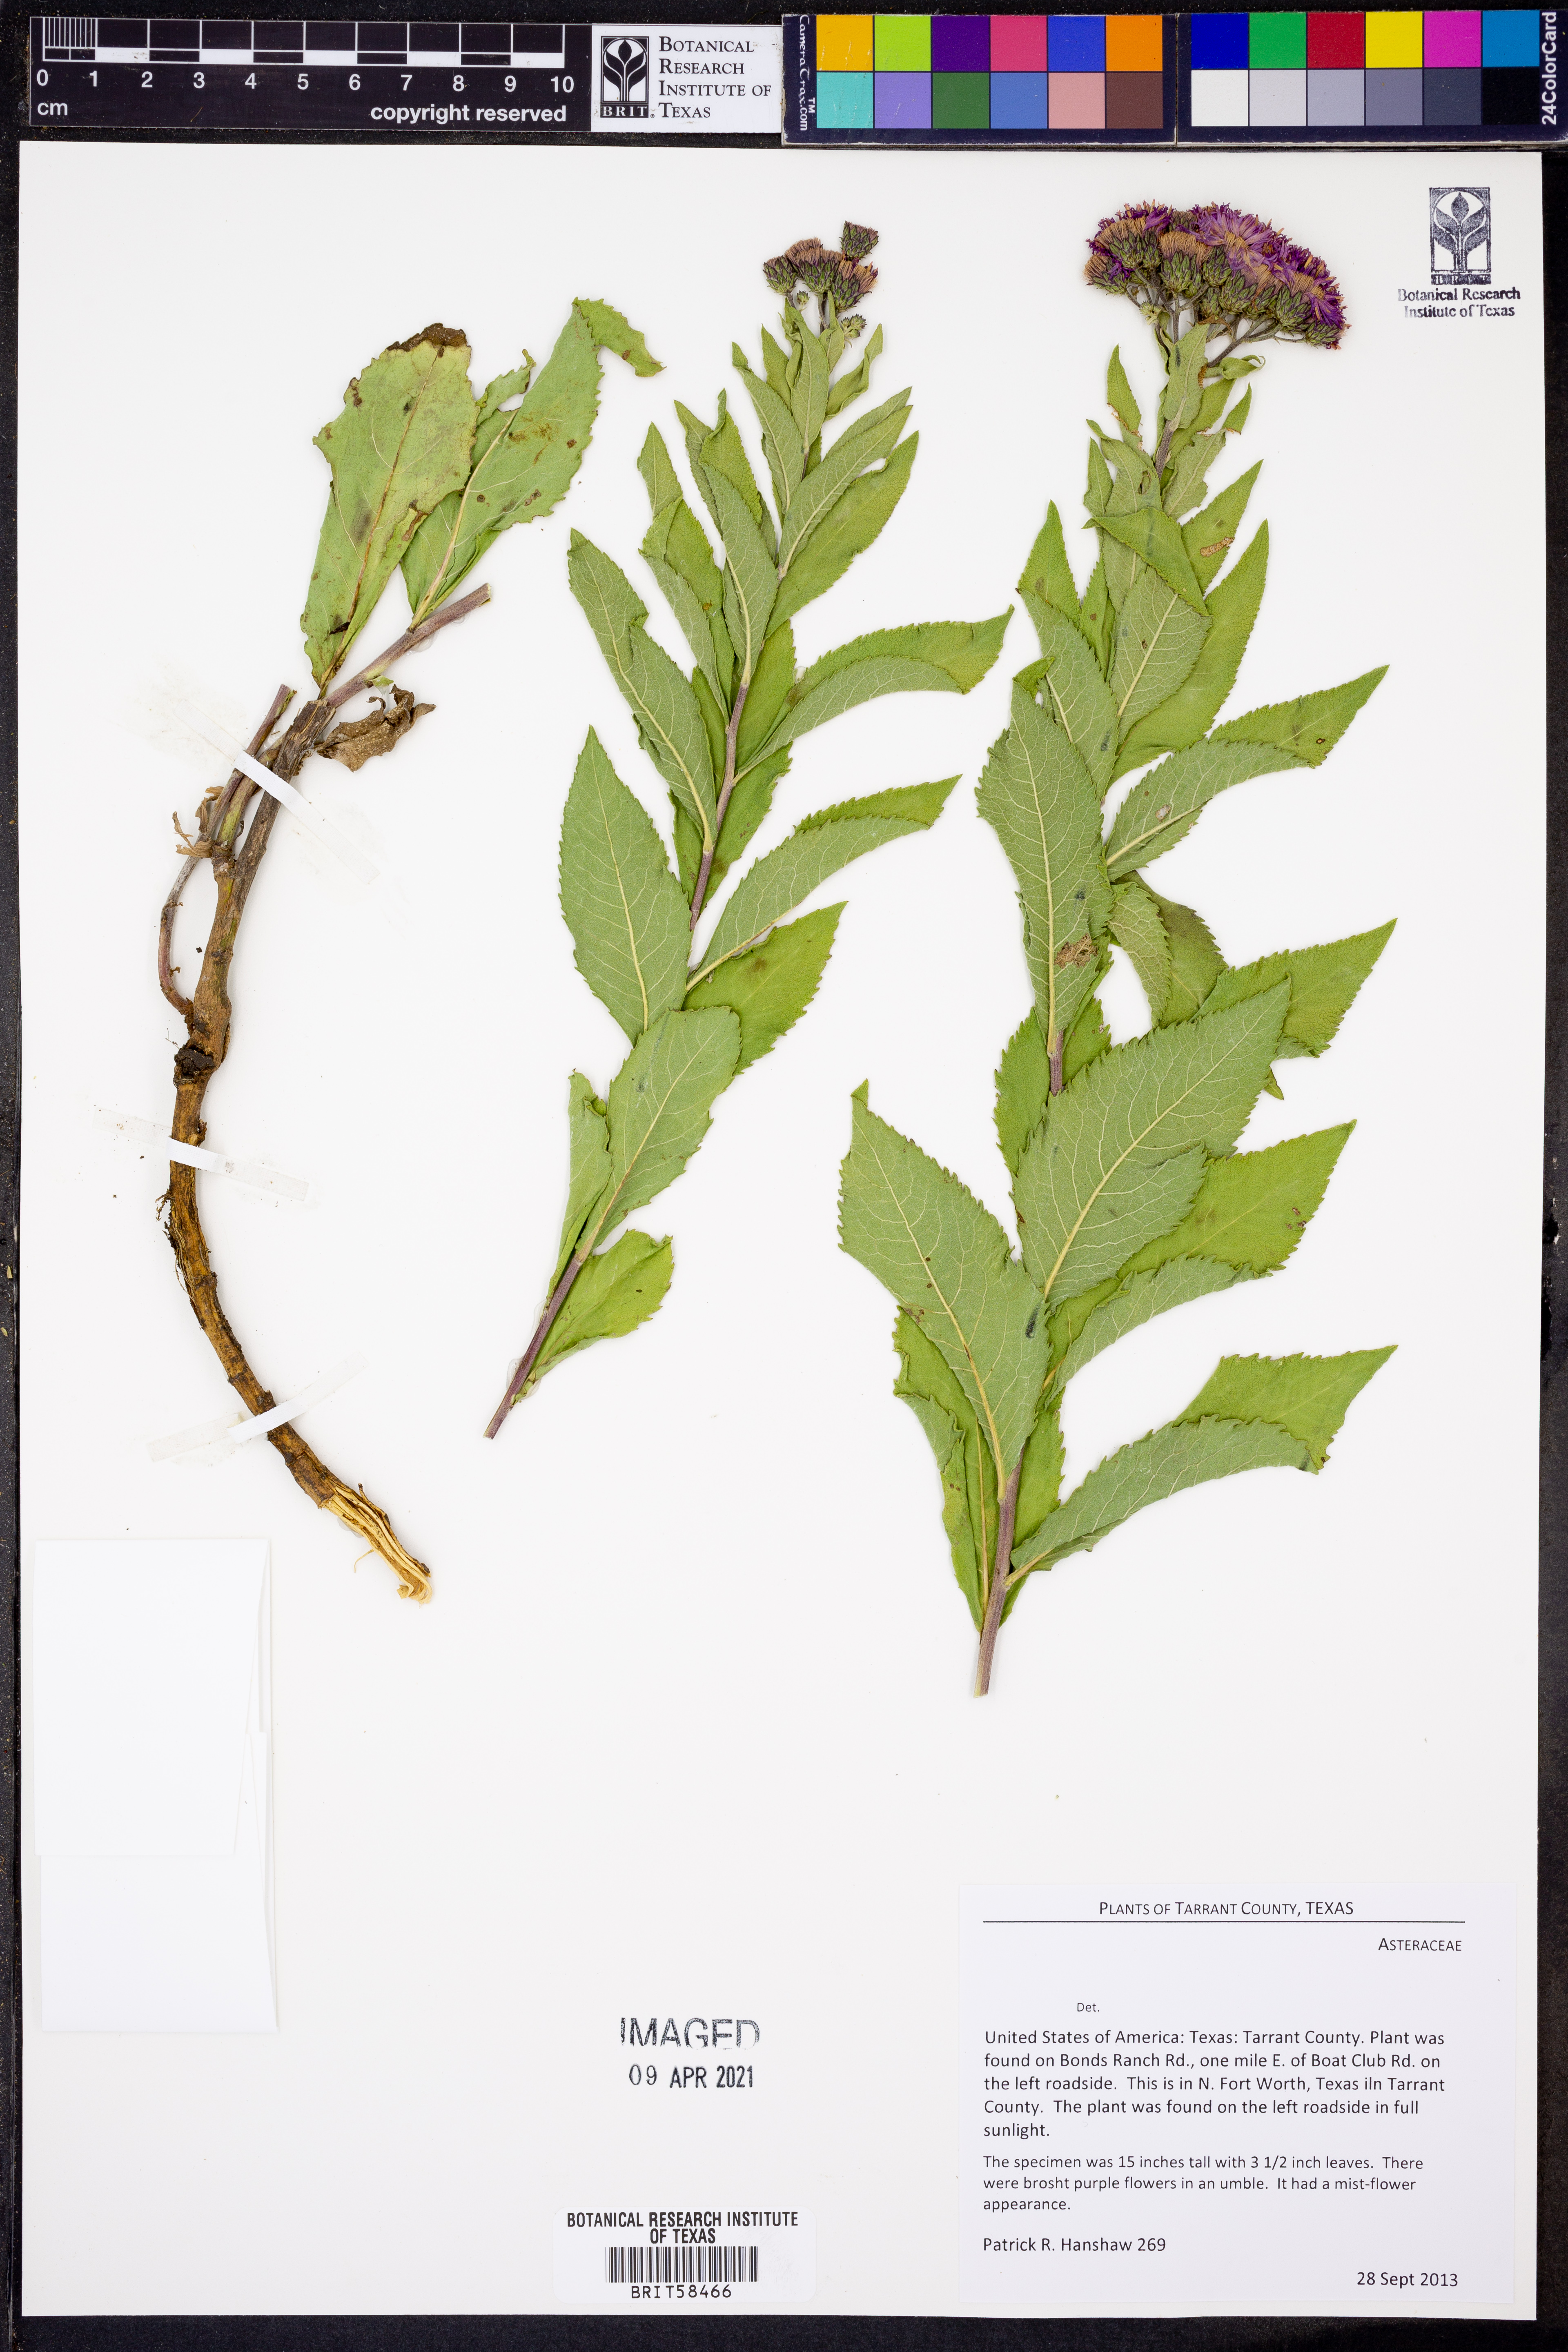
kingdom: Plantae
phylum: Tracheophyta
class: Magnoliopsida
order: Asterales
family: Asteraceae
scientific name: Asteraceae
